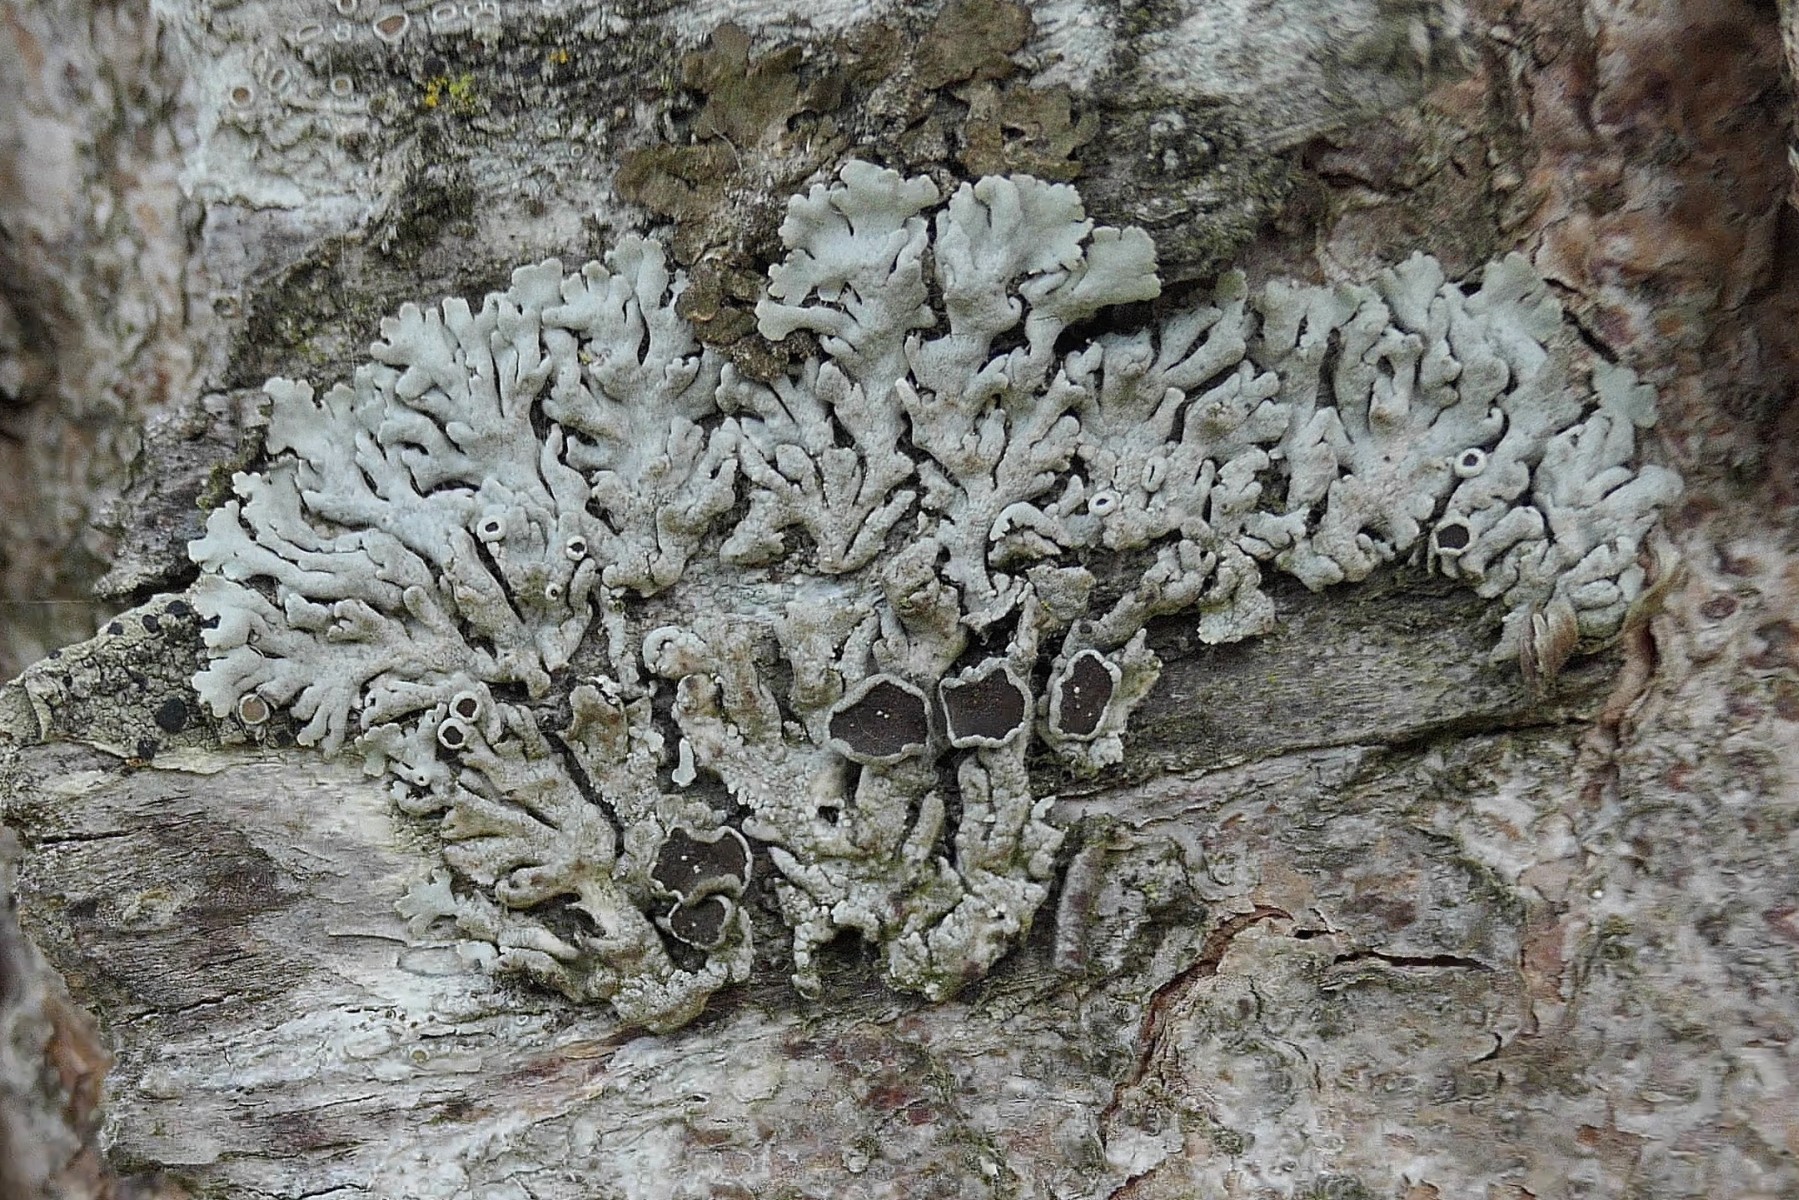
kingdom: Fungi
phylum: Ascomycota
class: Lecanoromycetes
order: Caliciales
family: Physciaceae
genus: Physcia
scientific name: Physcia aipolia
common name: hvidprikket rosetlav
